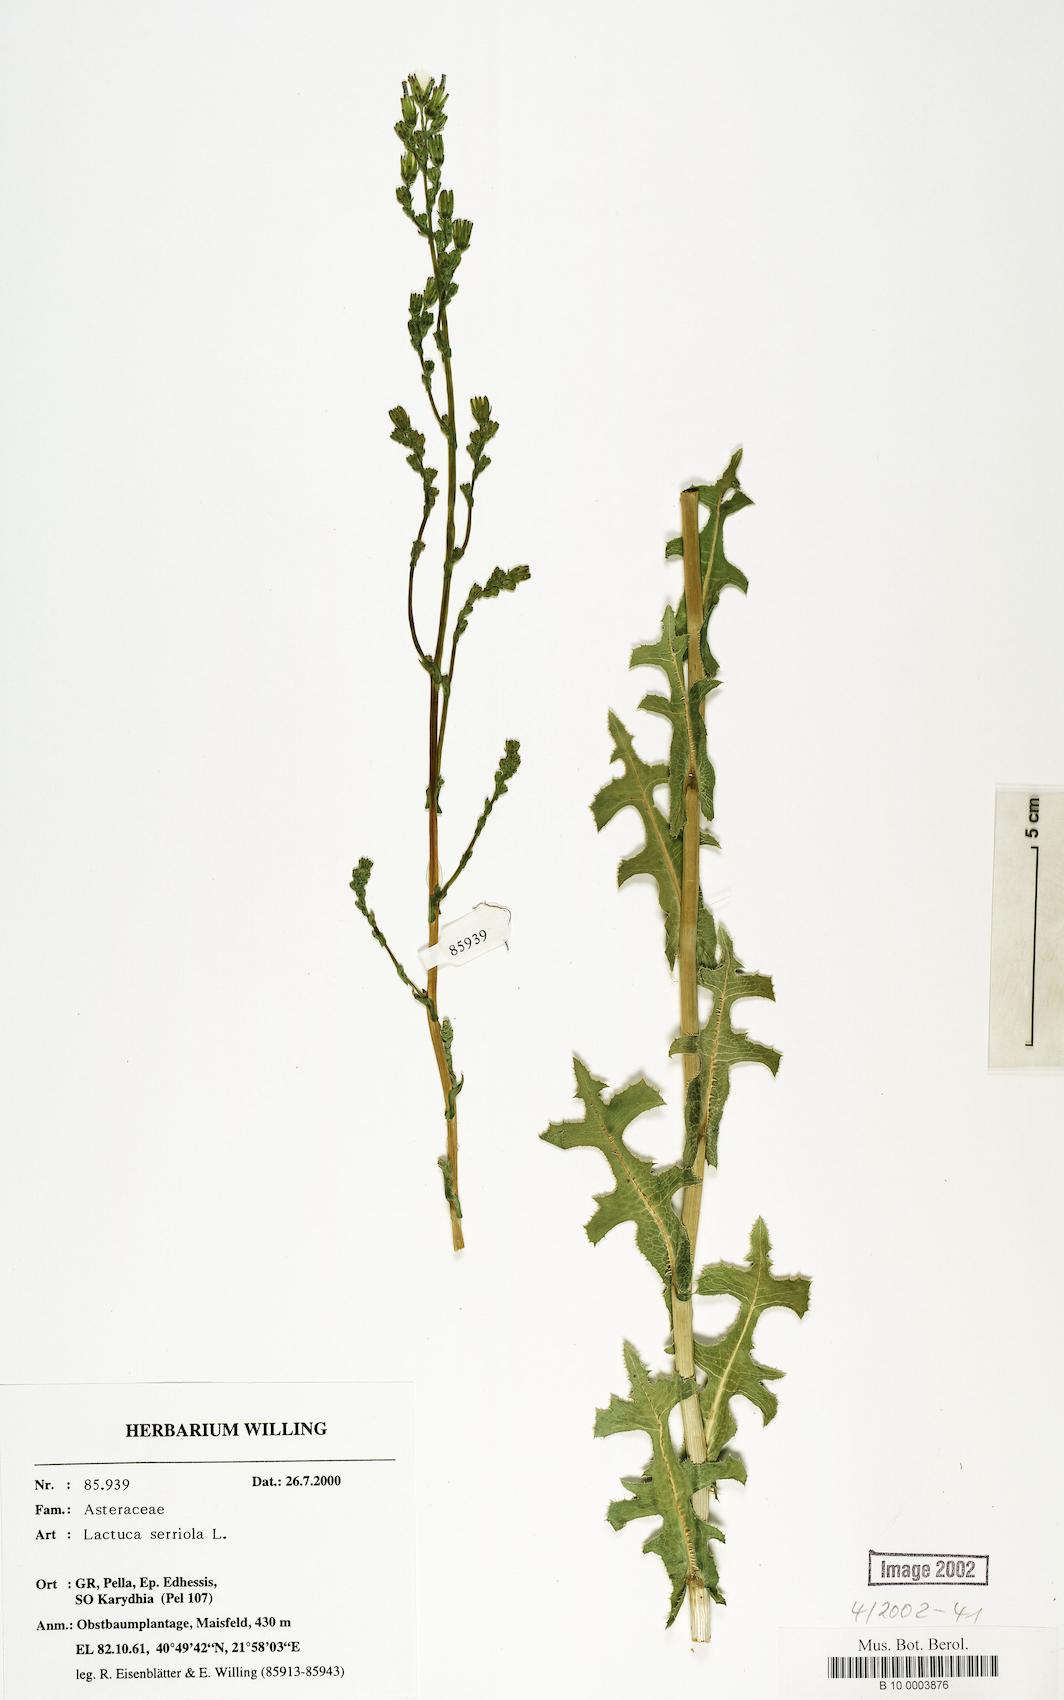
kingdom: Plantae
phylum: Tracheophyta
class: Magnoliopsida
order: Asterales
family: Asteraceae
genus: Lactuca
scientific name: Lactuca serriola
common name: Prickly lettuce
